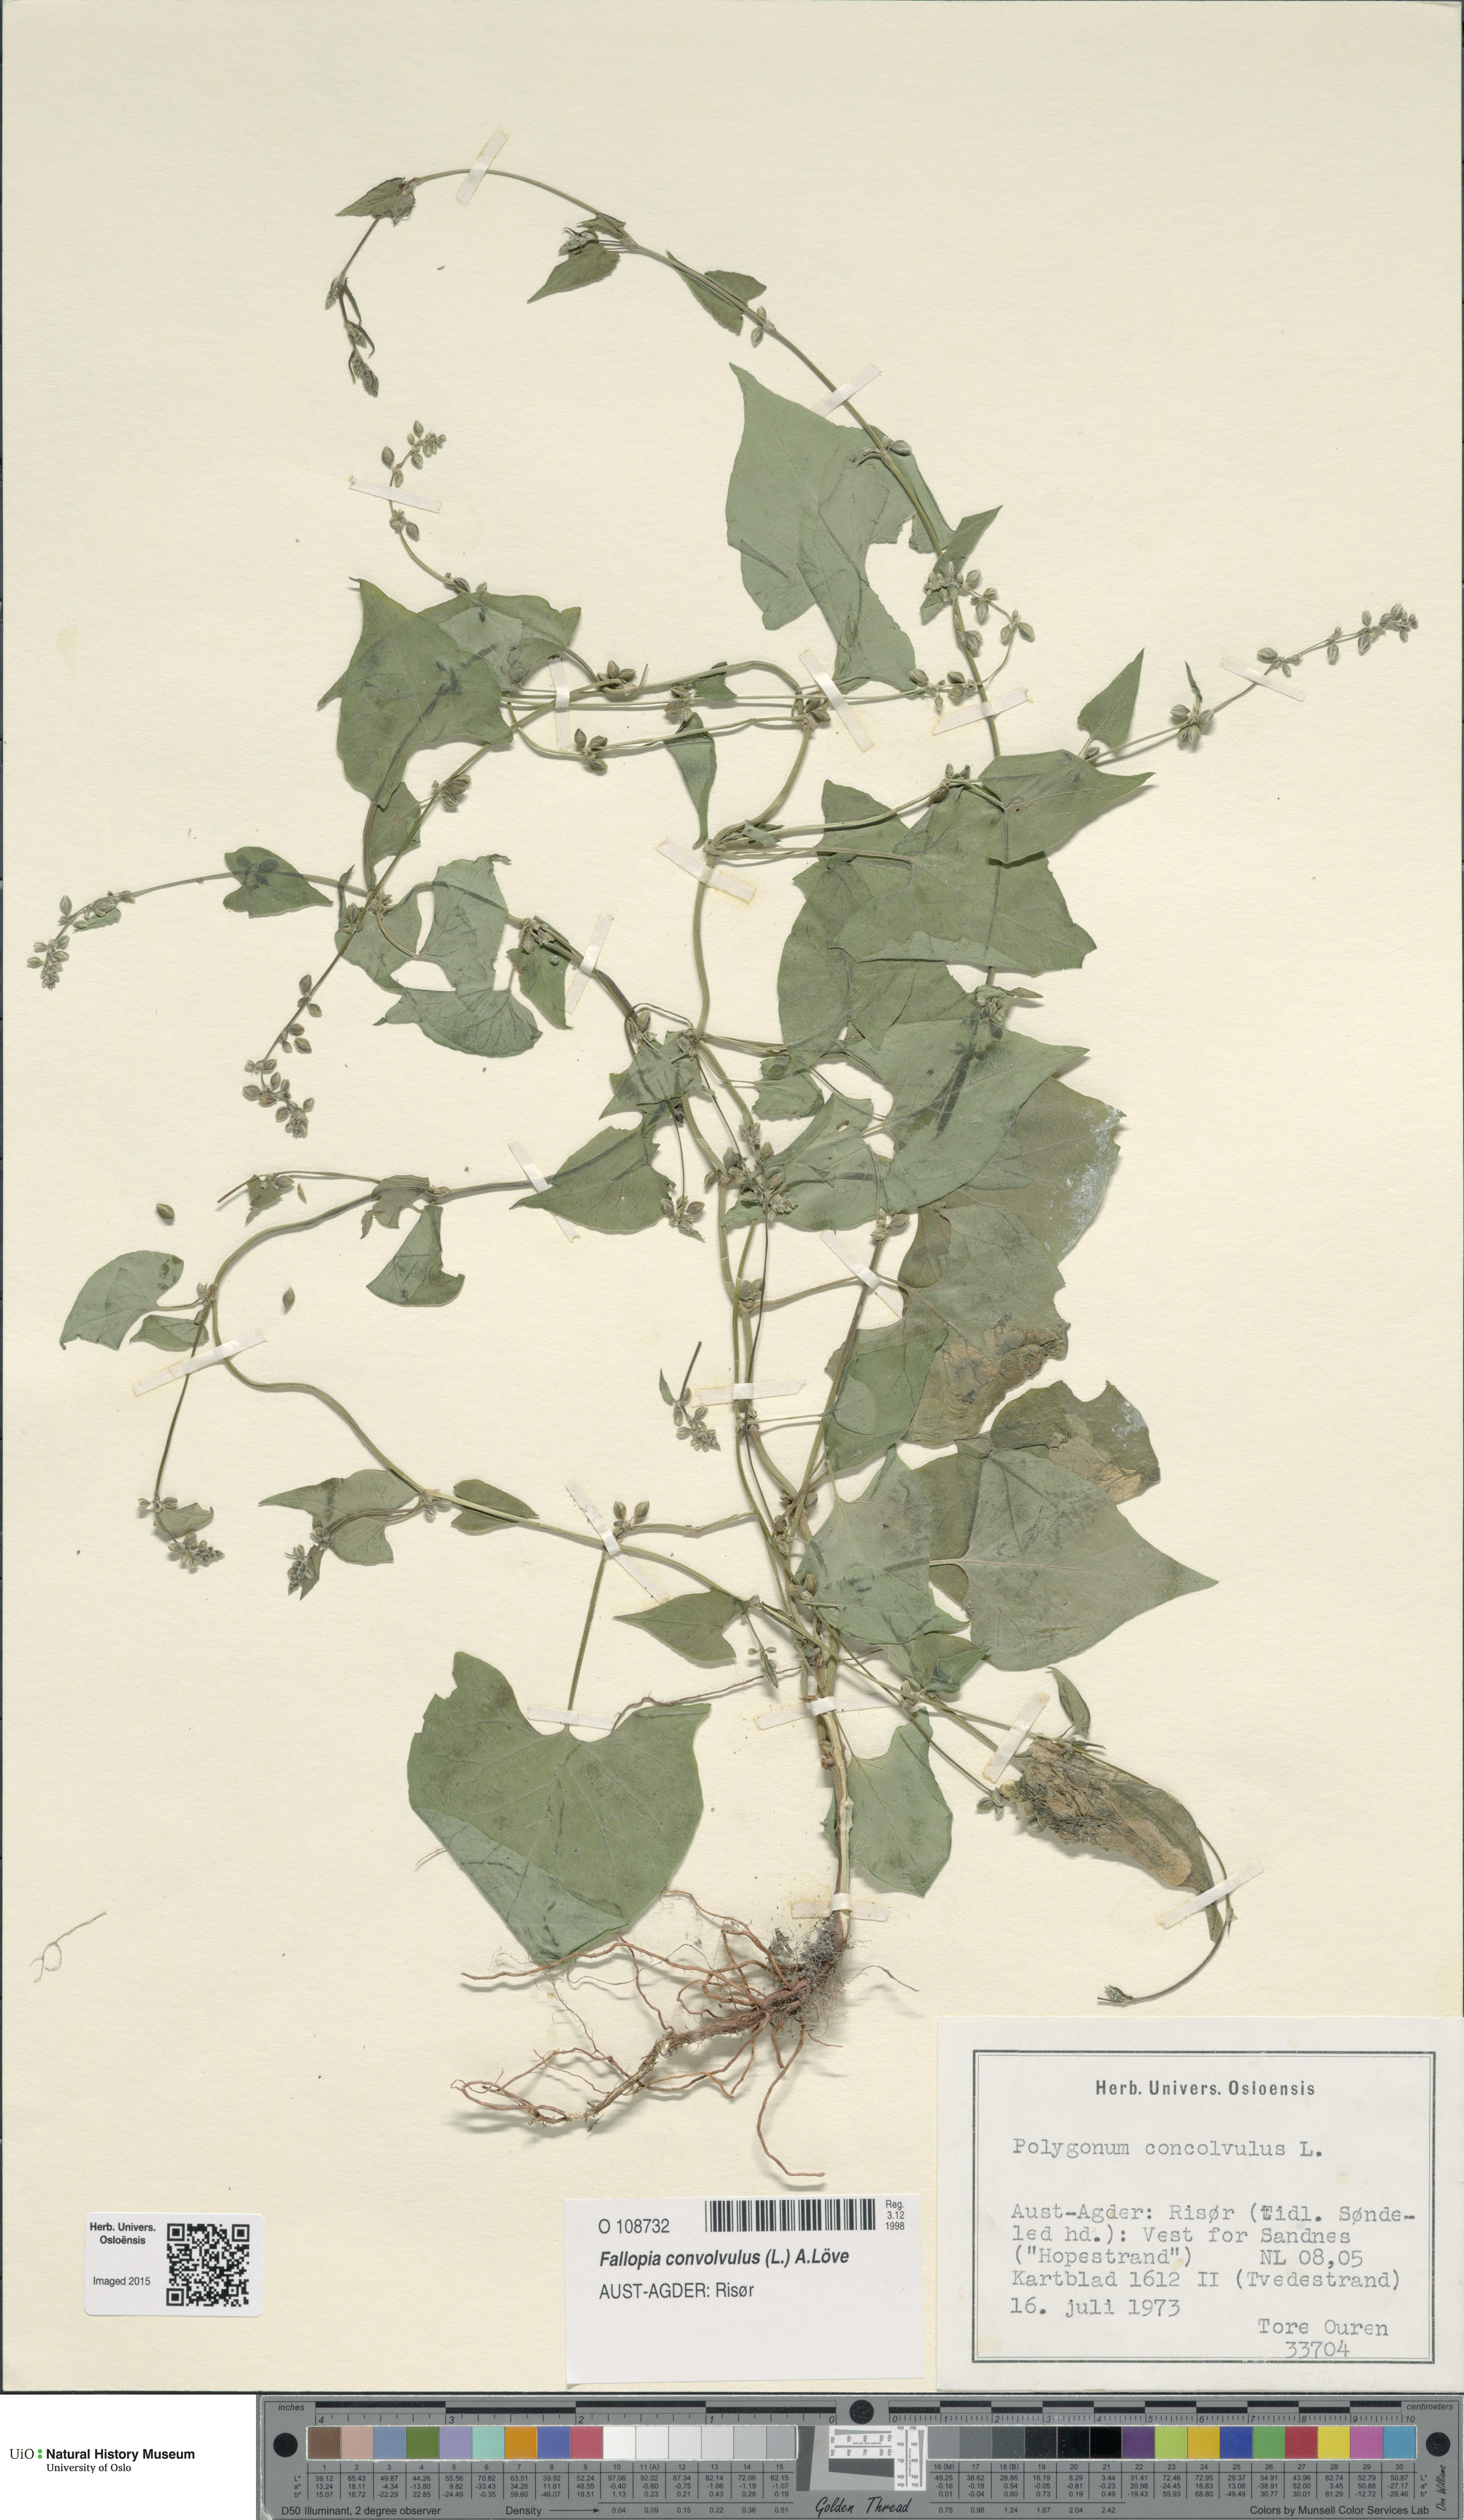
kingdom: Plantae
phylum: Tracheophyta
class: Magnoliopsida
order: Caryophyllales
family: Polygonaceae
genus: Fallopia
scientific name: Fallopia convolvulus
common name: Black bindweed
